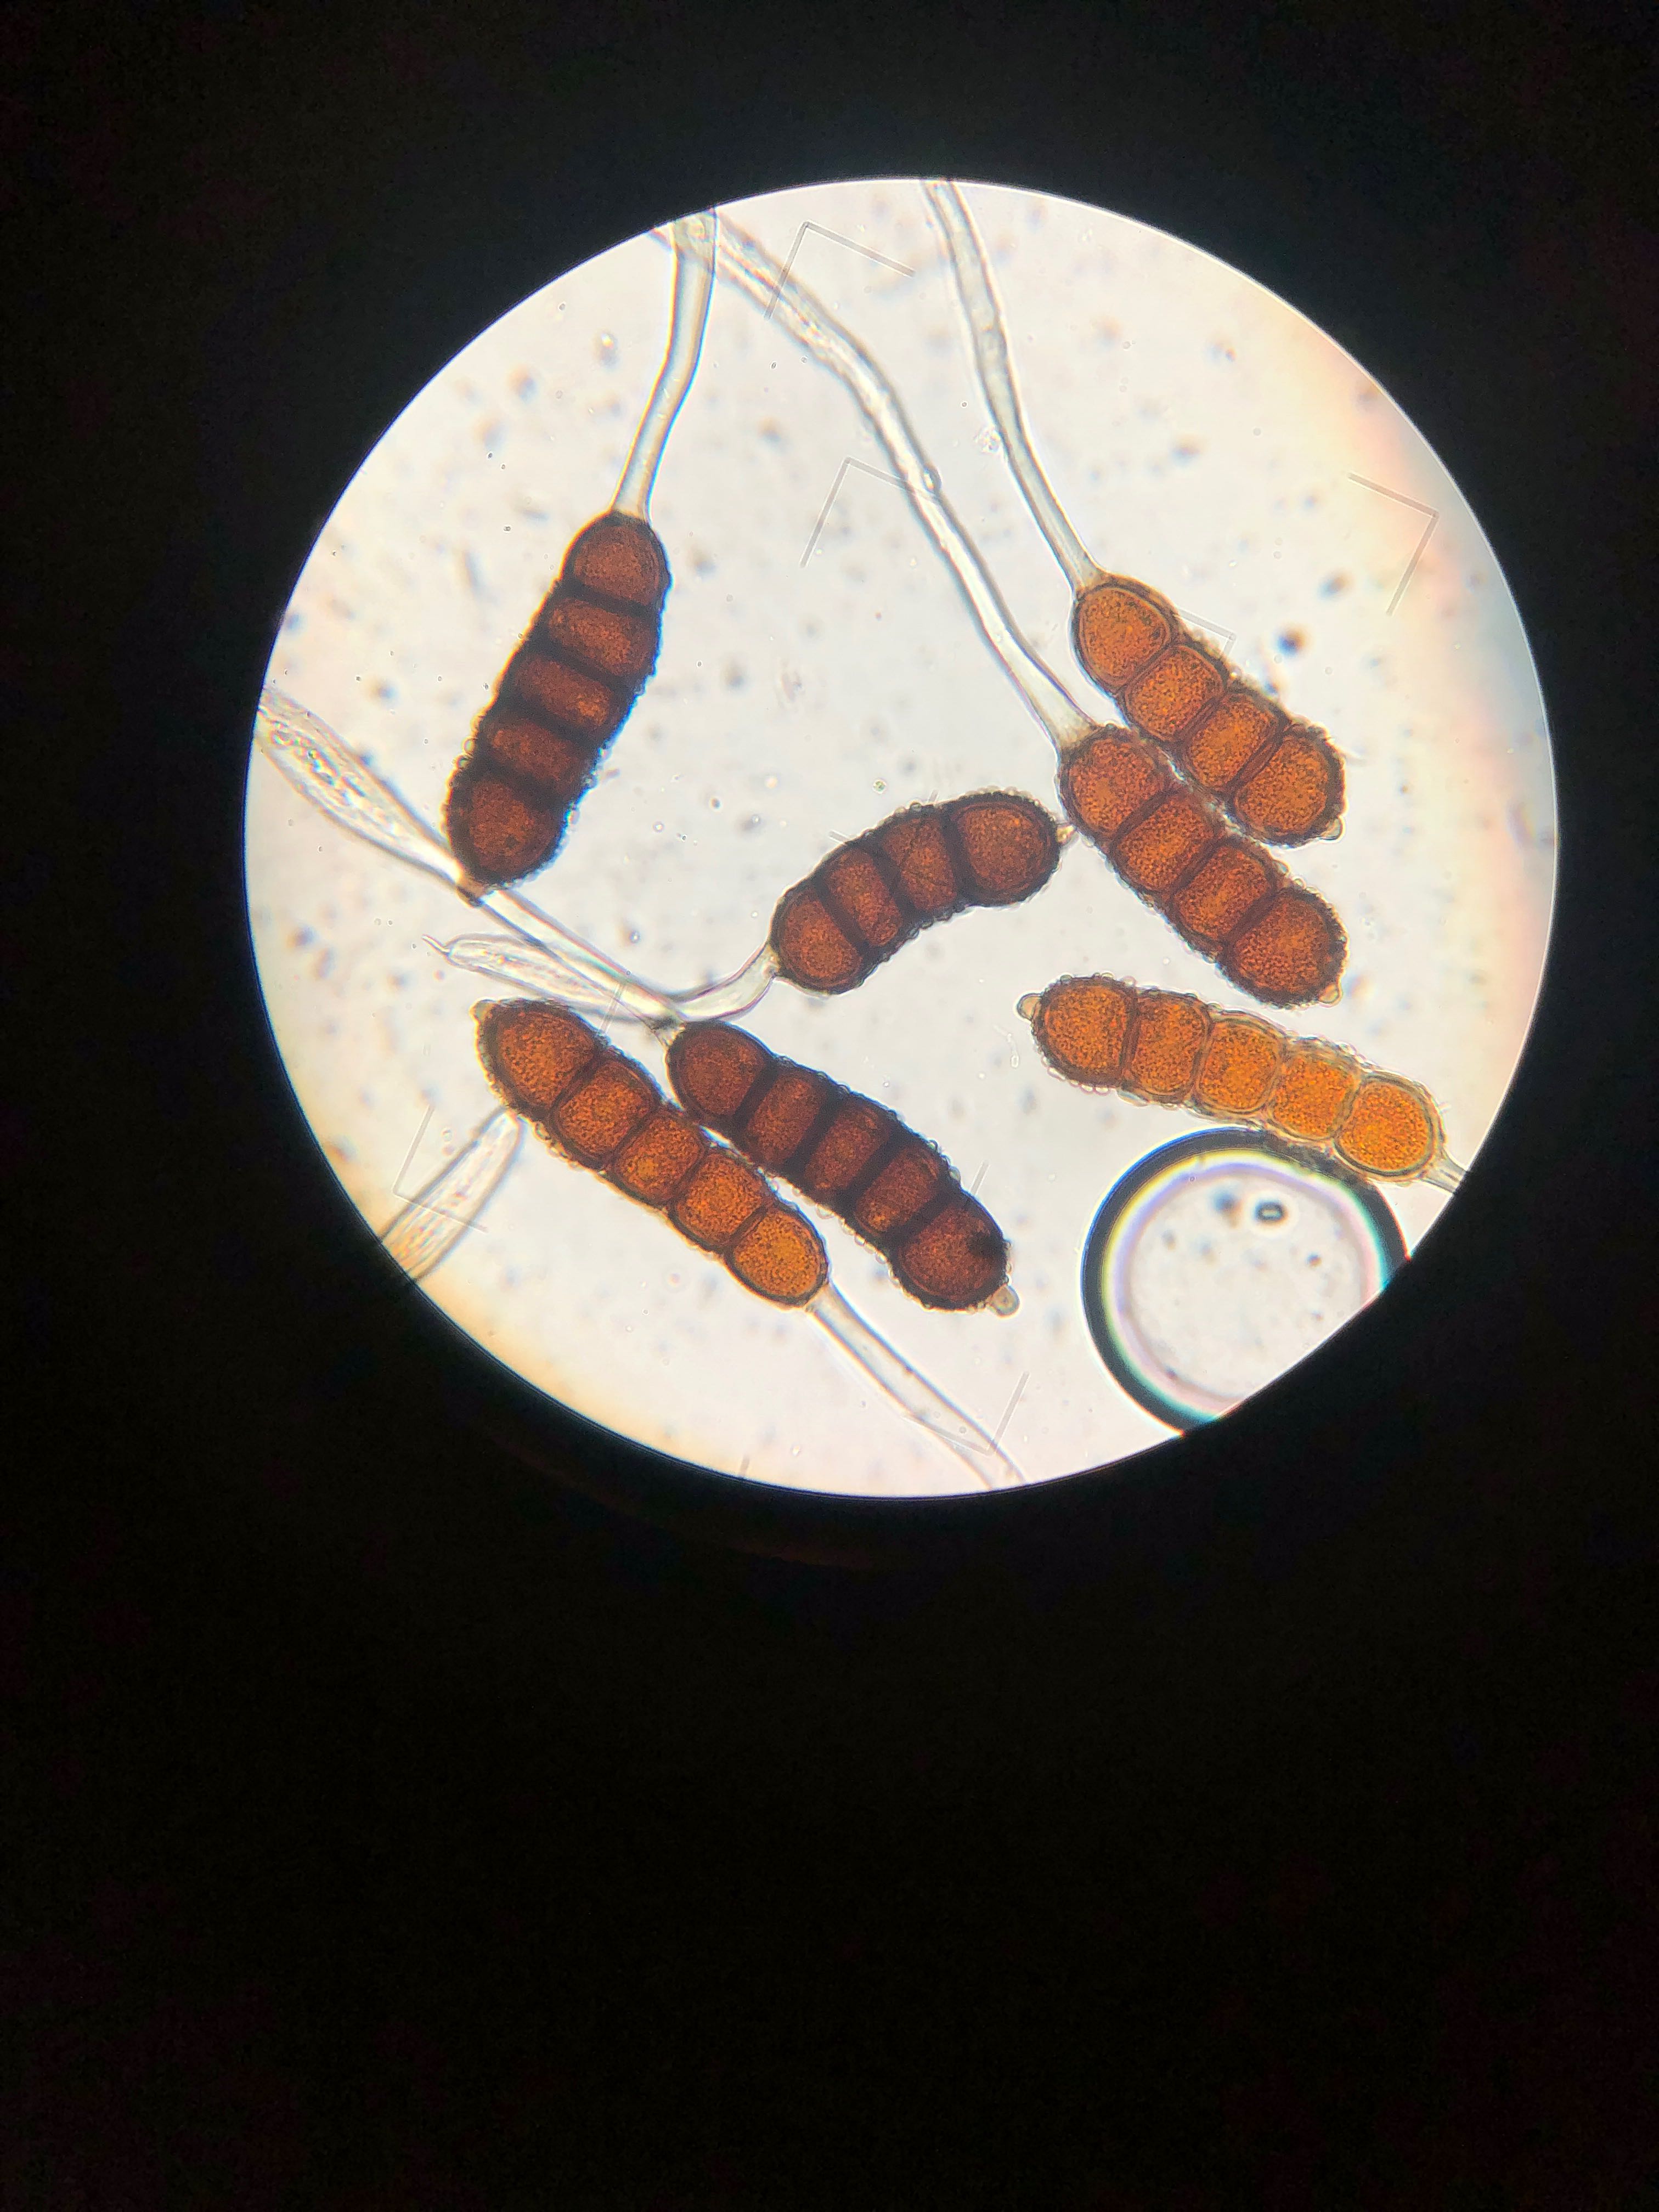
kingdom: Fungi
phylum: Basidiomycota
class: Pucciniomycetes
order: Pucciniales
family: Phragmidiaceae
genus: Phragmidium
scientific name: Phragmidium violaceum
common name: violet flercellerust
